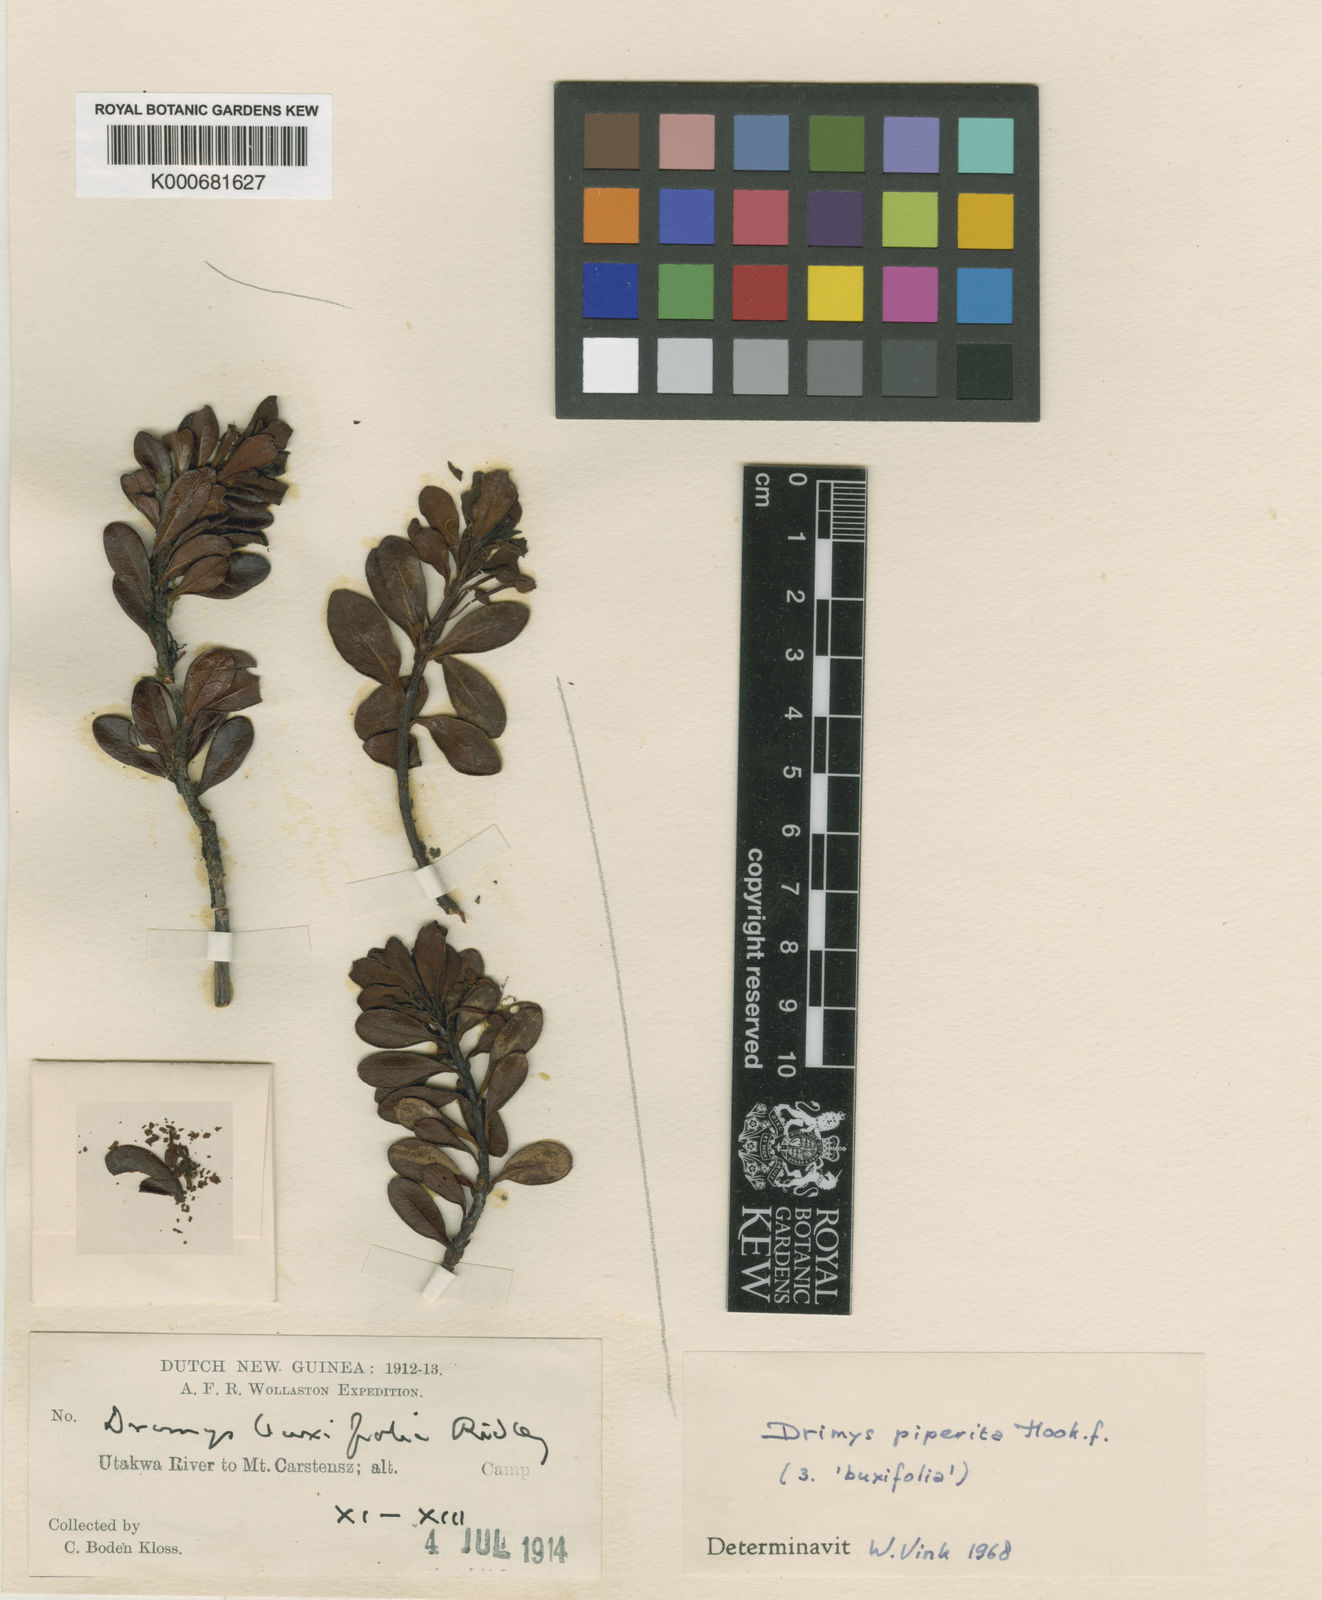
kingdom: Plantae
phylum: Tracheophyta
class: Magnoliopsida
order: Canellales
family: Winteraceae
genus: Drimys
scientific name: Drimys piperita
